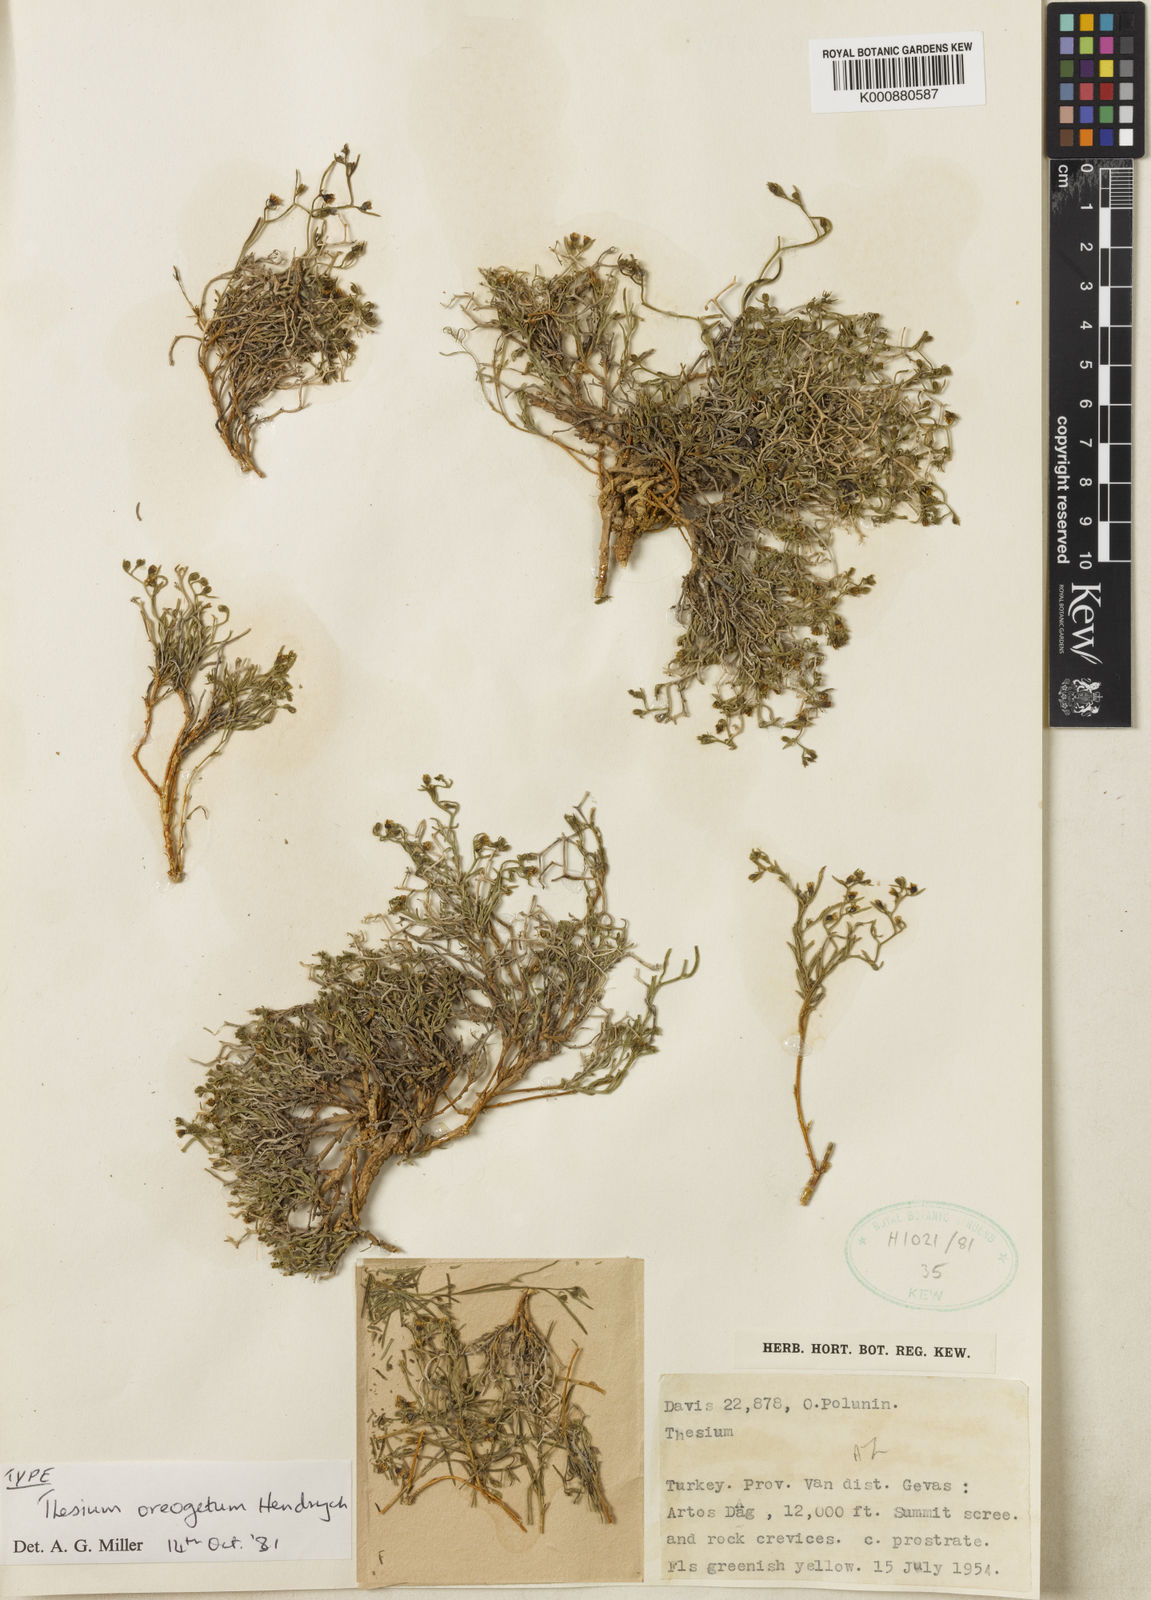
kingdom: Plantae
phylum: Tracheophyta
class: Magnoliopsida
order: Santalales
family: Thesiaceae
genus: Thesium
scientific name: Thesium oreogetum
